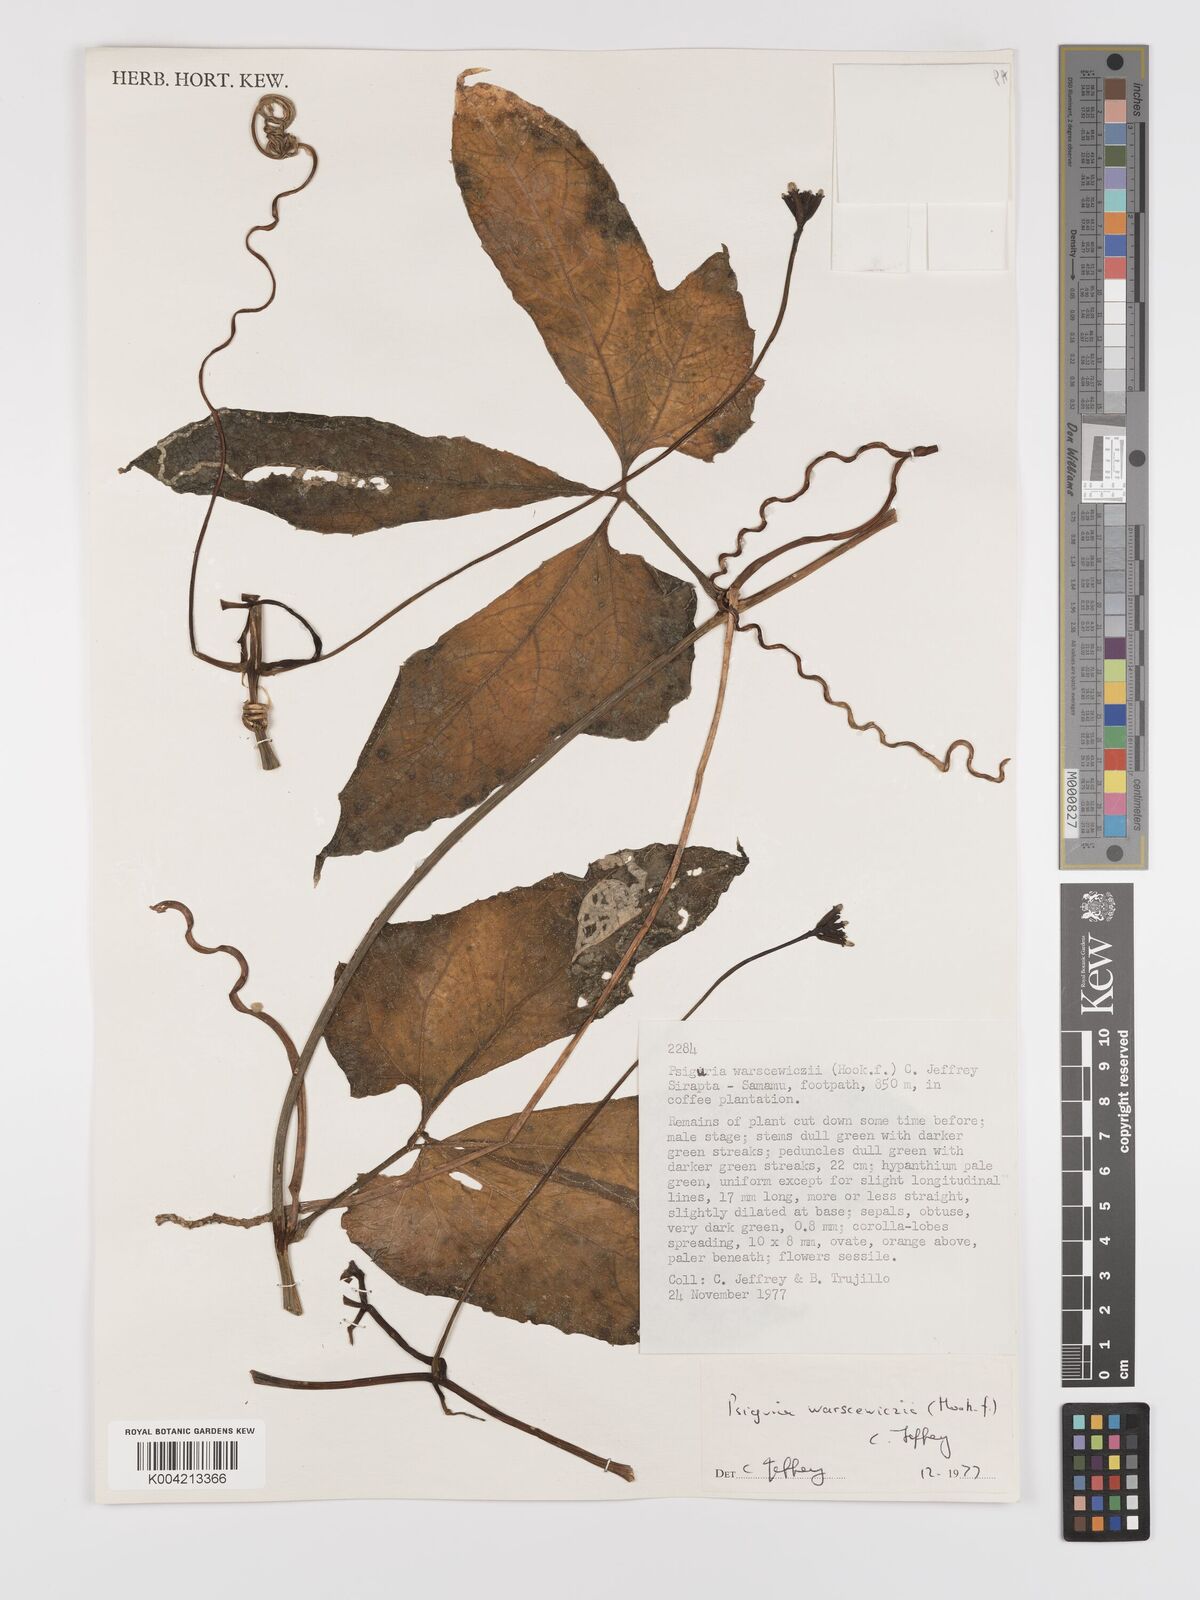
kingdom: Plantae
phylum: Tracheophyta
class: Magnoliopsida
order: Cucurbitales
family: Cucurbitaceae
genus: Psiguria
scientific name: Psiguria warscewiczii
